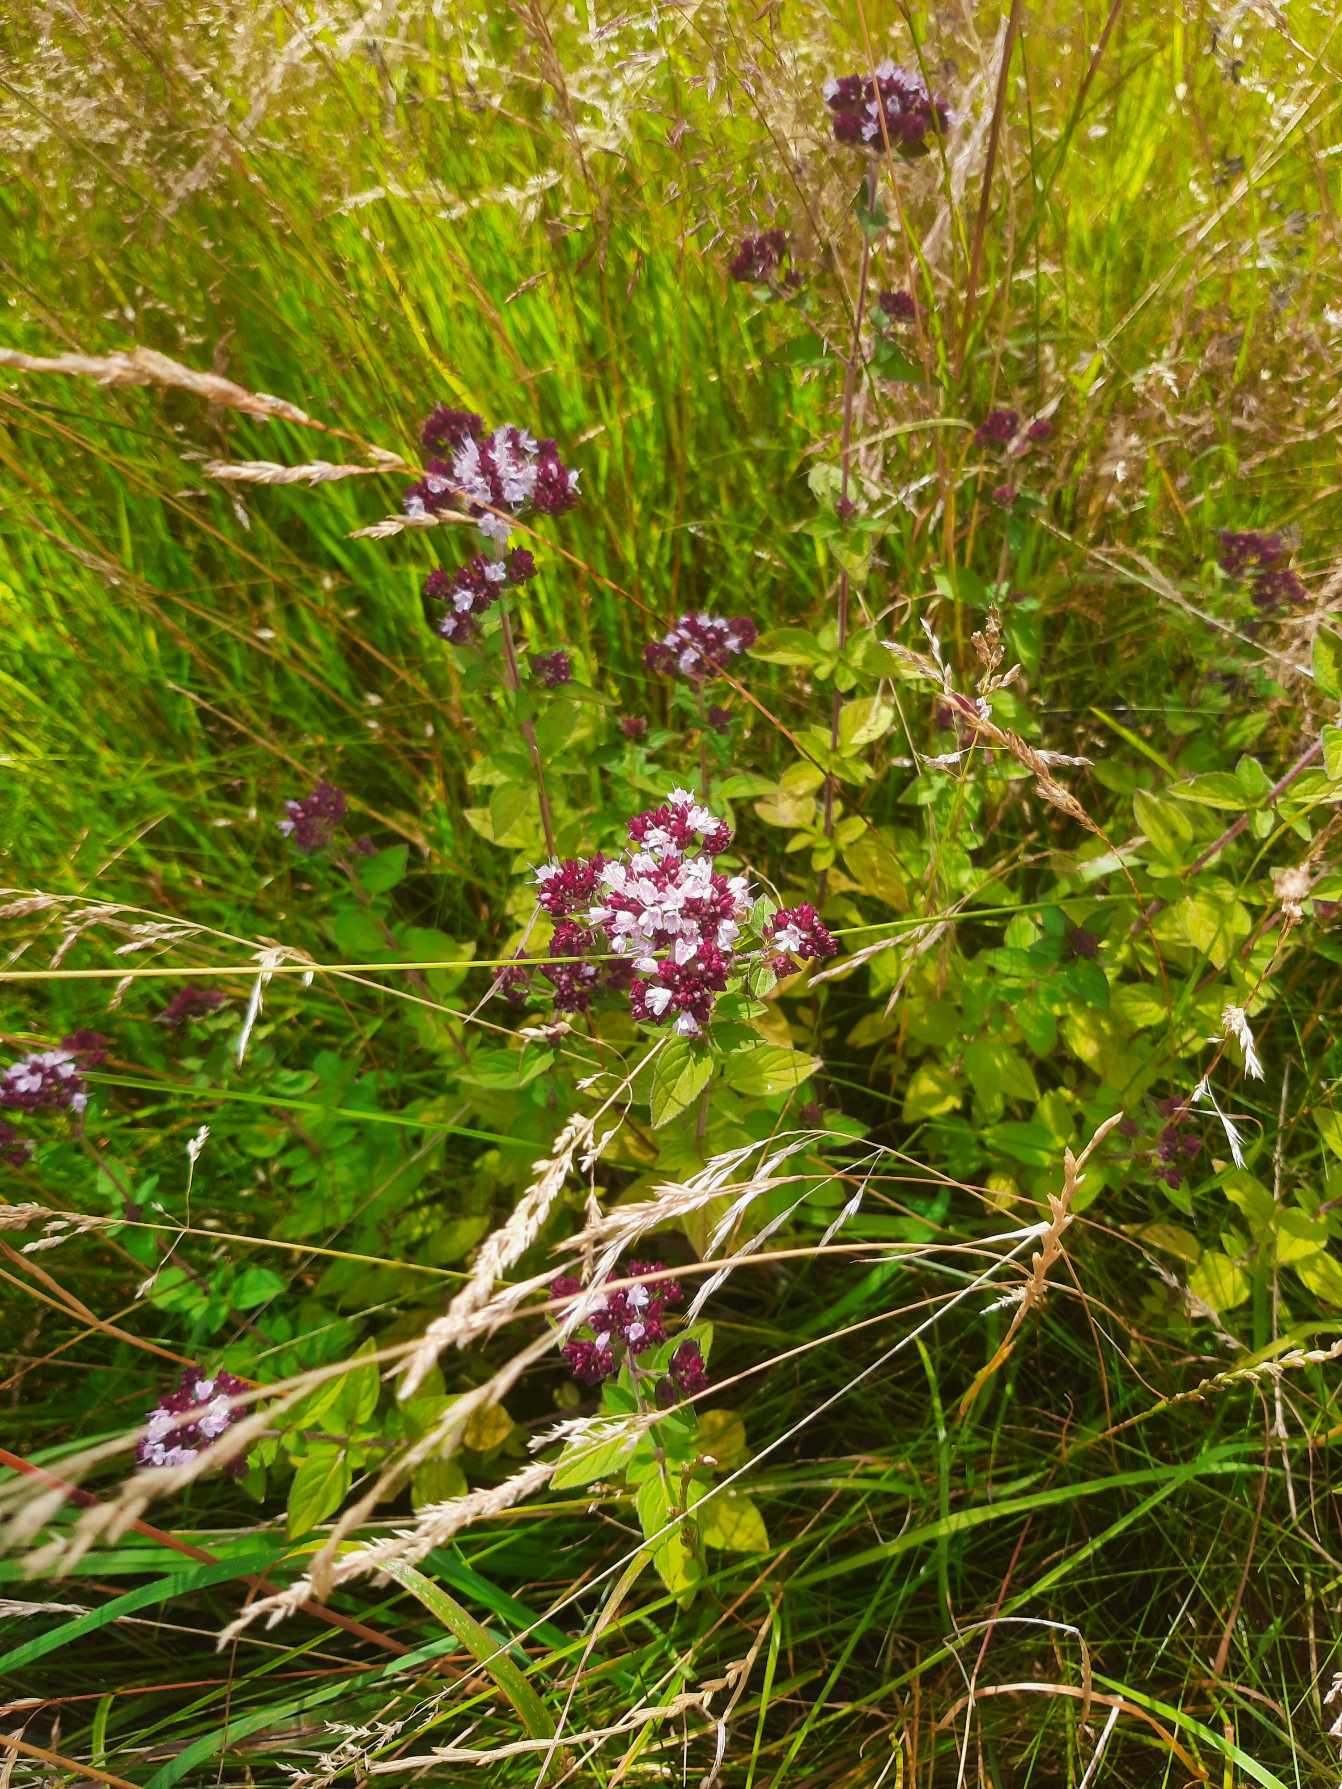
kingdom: Plantae
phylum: Tracheophyta
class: Magnoliopsida
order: Lamiales
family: Lamiaceae
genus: Origanum
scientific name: Origanum vulgare
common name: Merian
